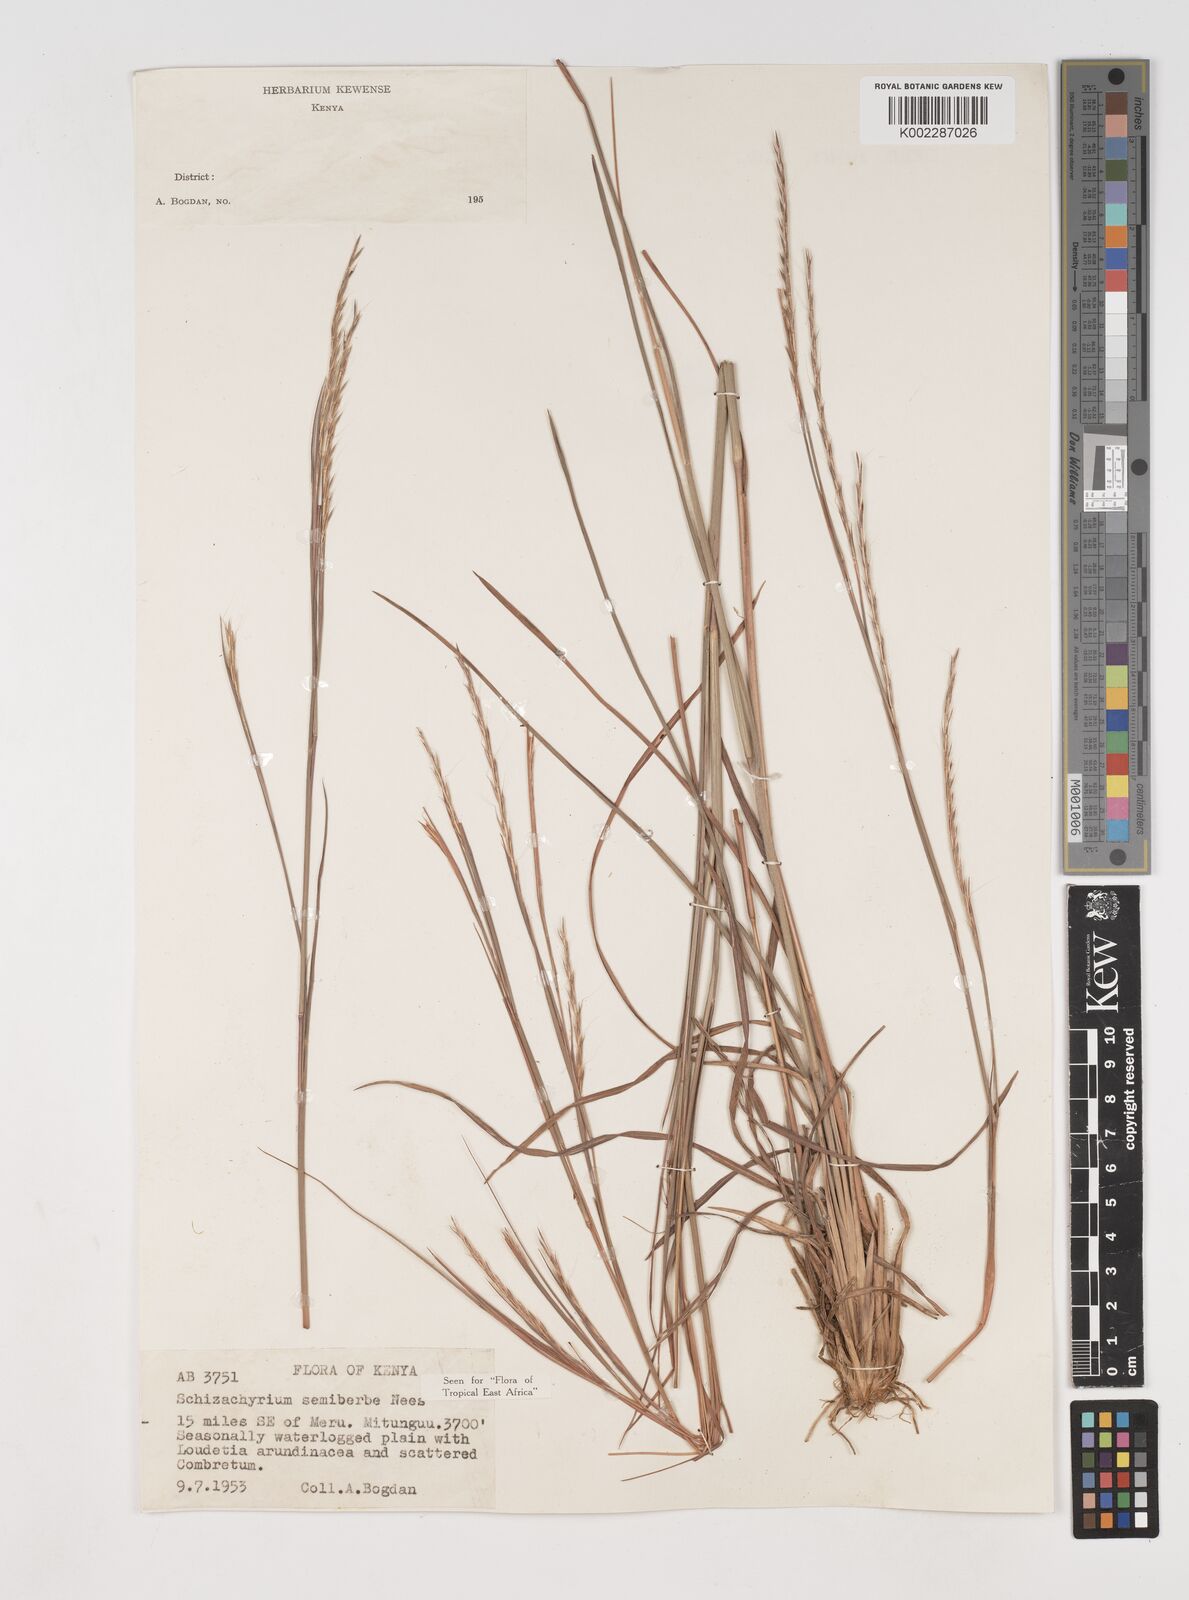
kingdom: Plantae
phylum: Tracheophyta
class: Liliopsida
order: Poales
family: Poaceae
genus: Schizachyrium
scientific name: Schizachyrium sanguineum
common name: Crimson bluestem
